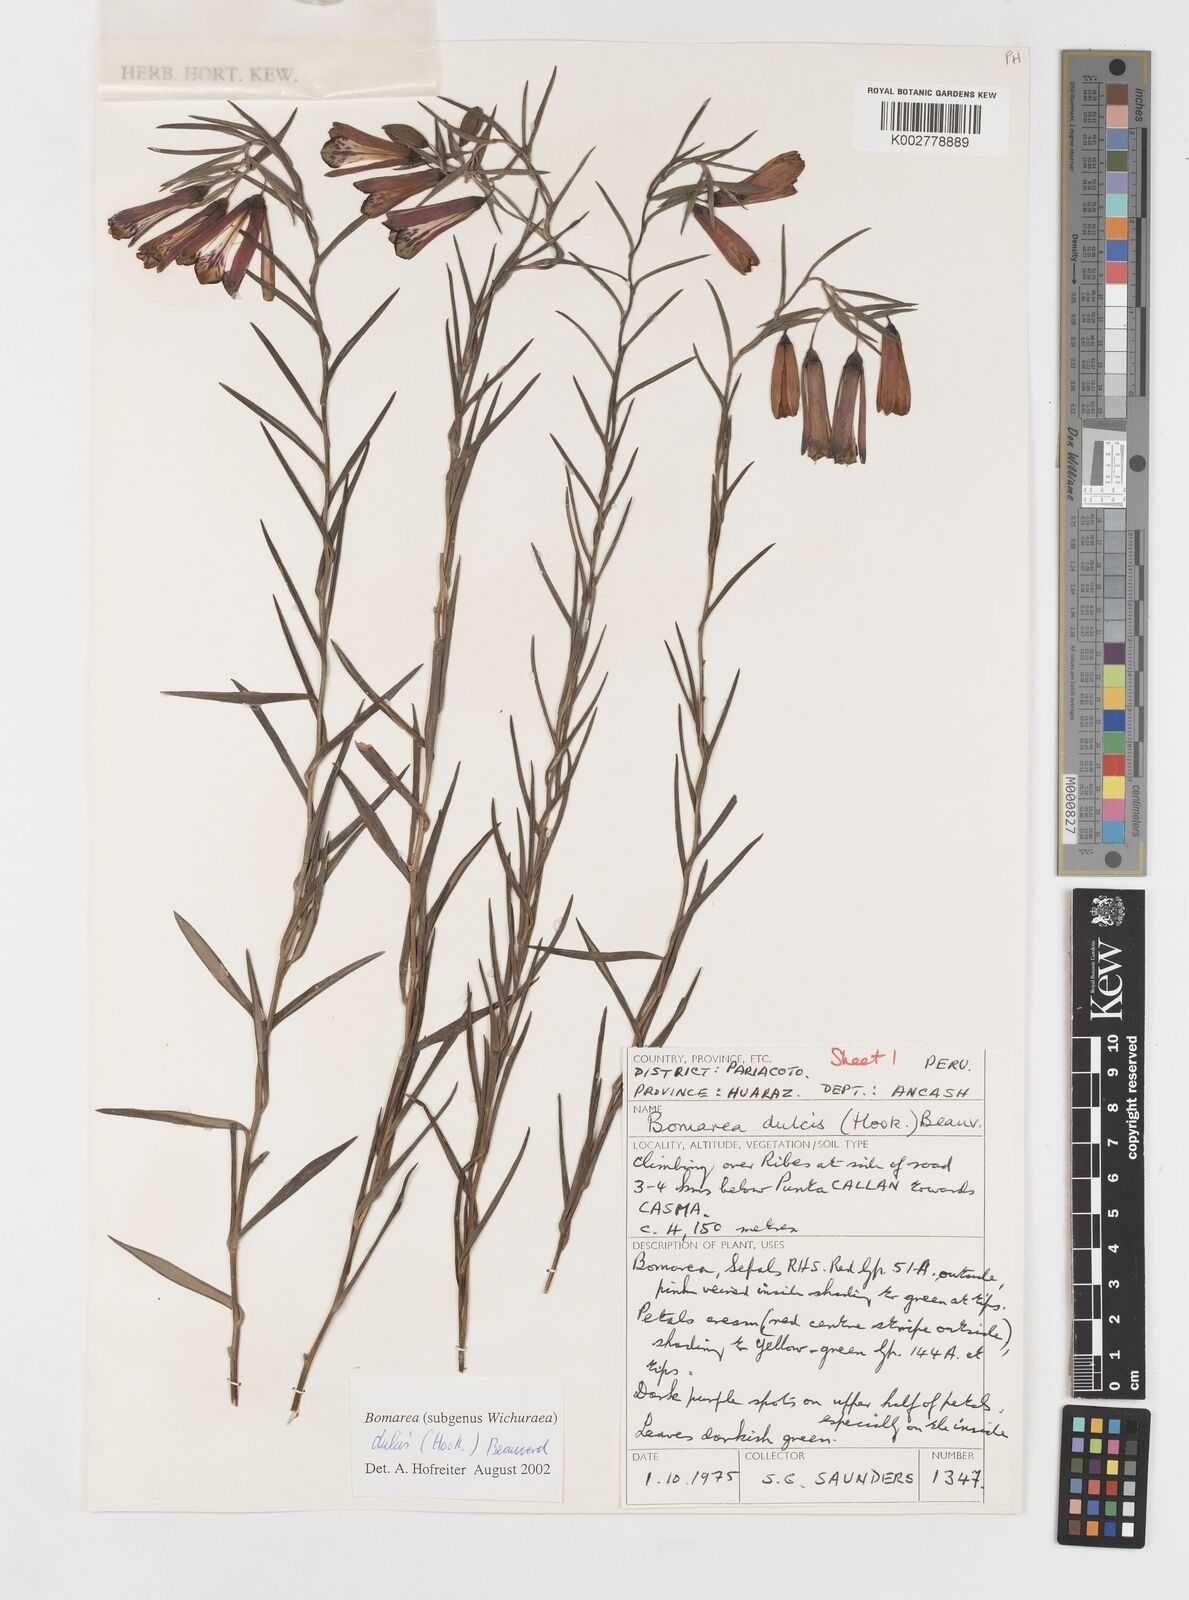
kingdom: Plantae
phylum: Tracheophyta
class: Liliopsida
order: Liliales
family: Alstroemeriaceae
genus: Bomarea
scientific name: Bomarea dulcis
